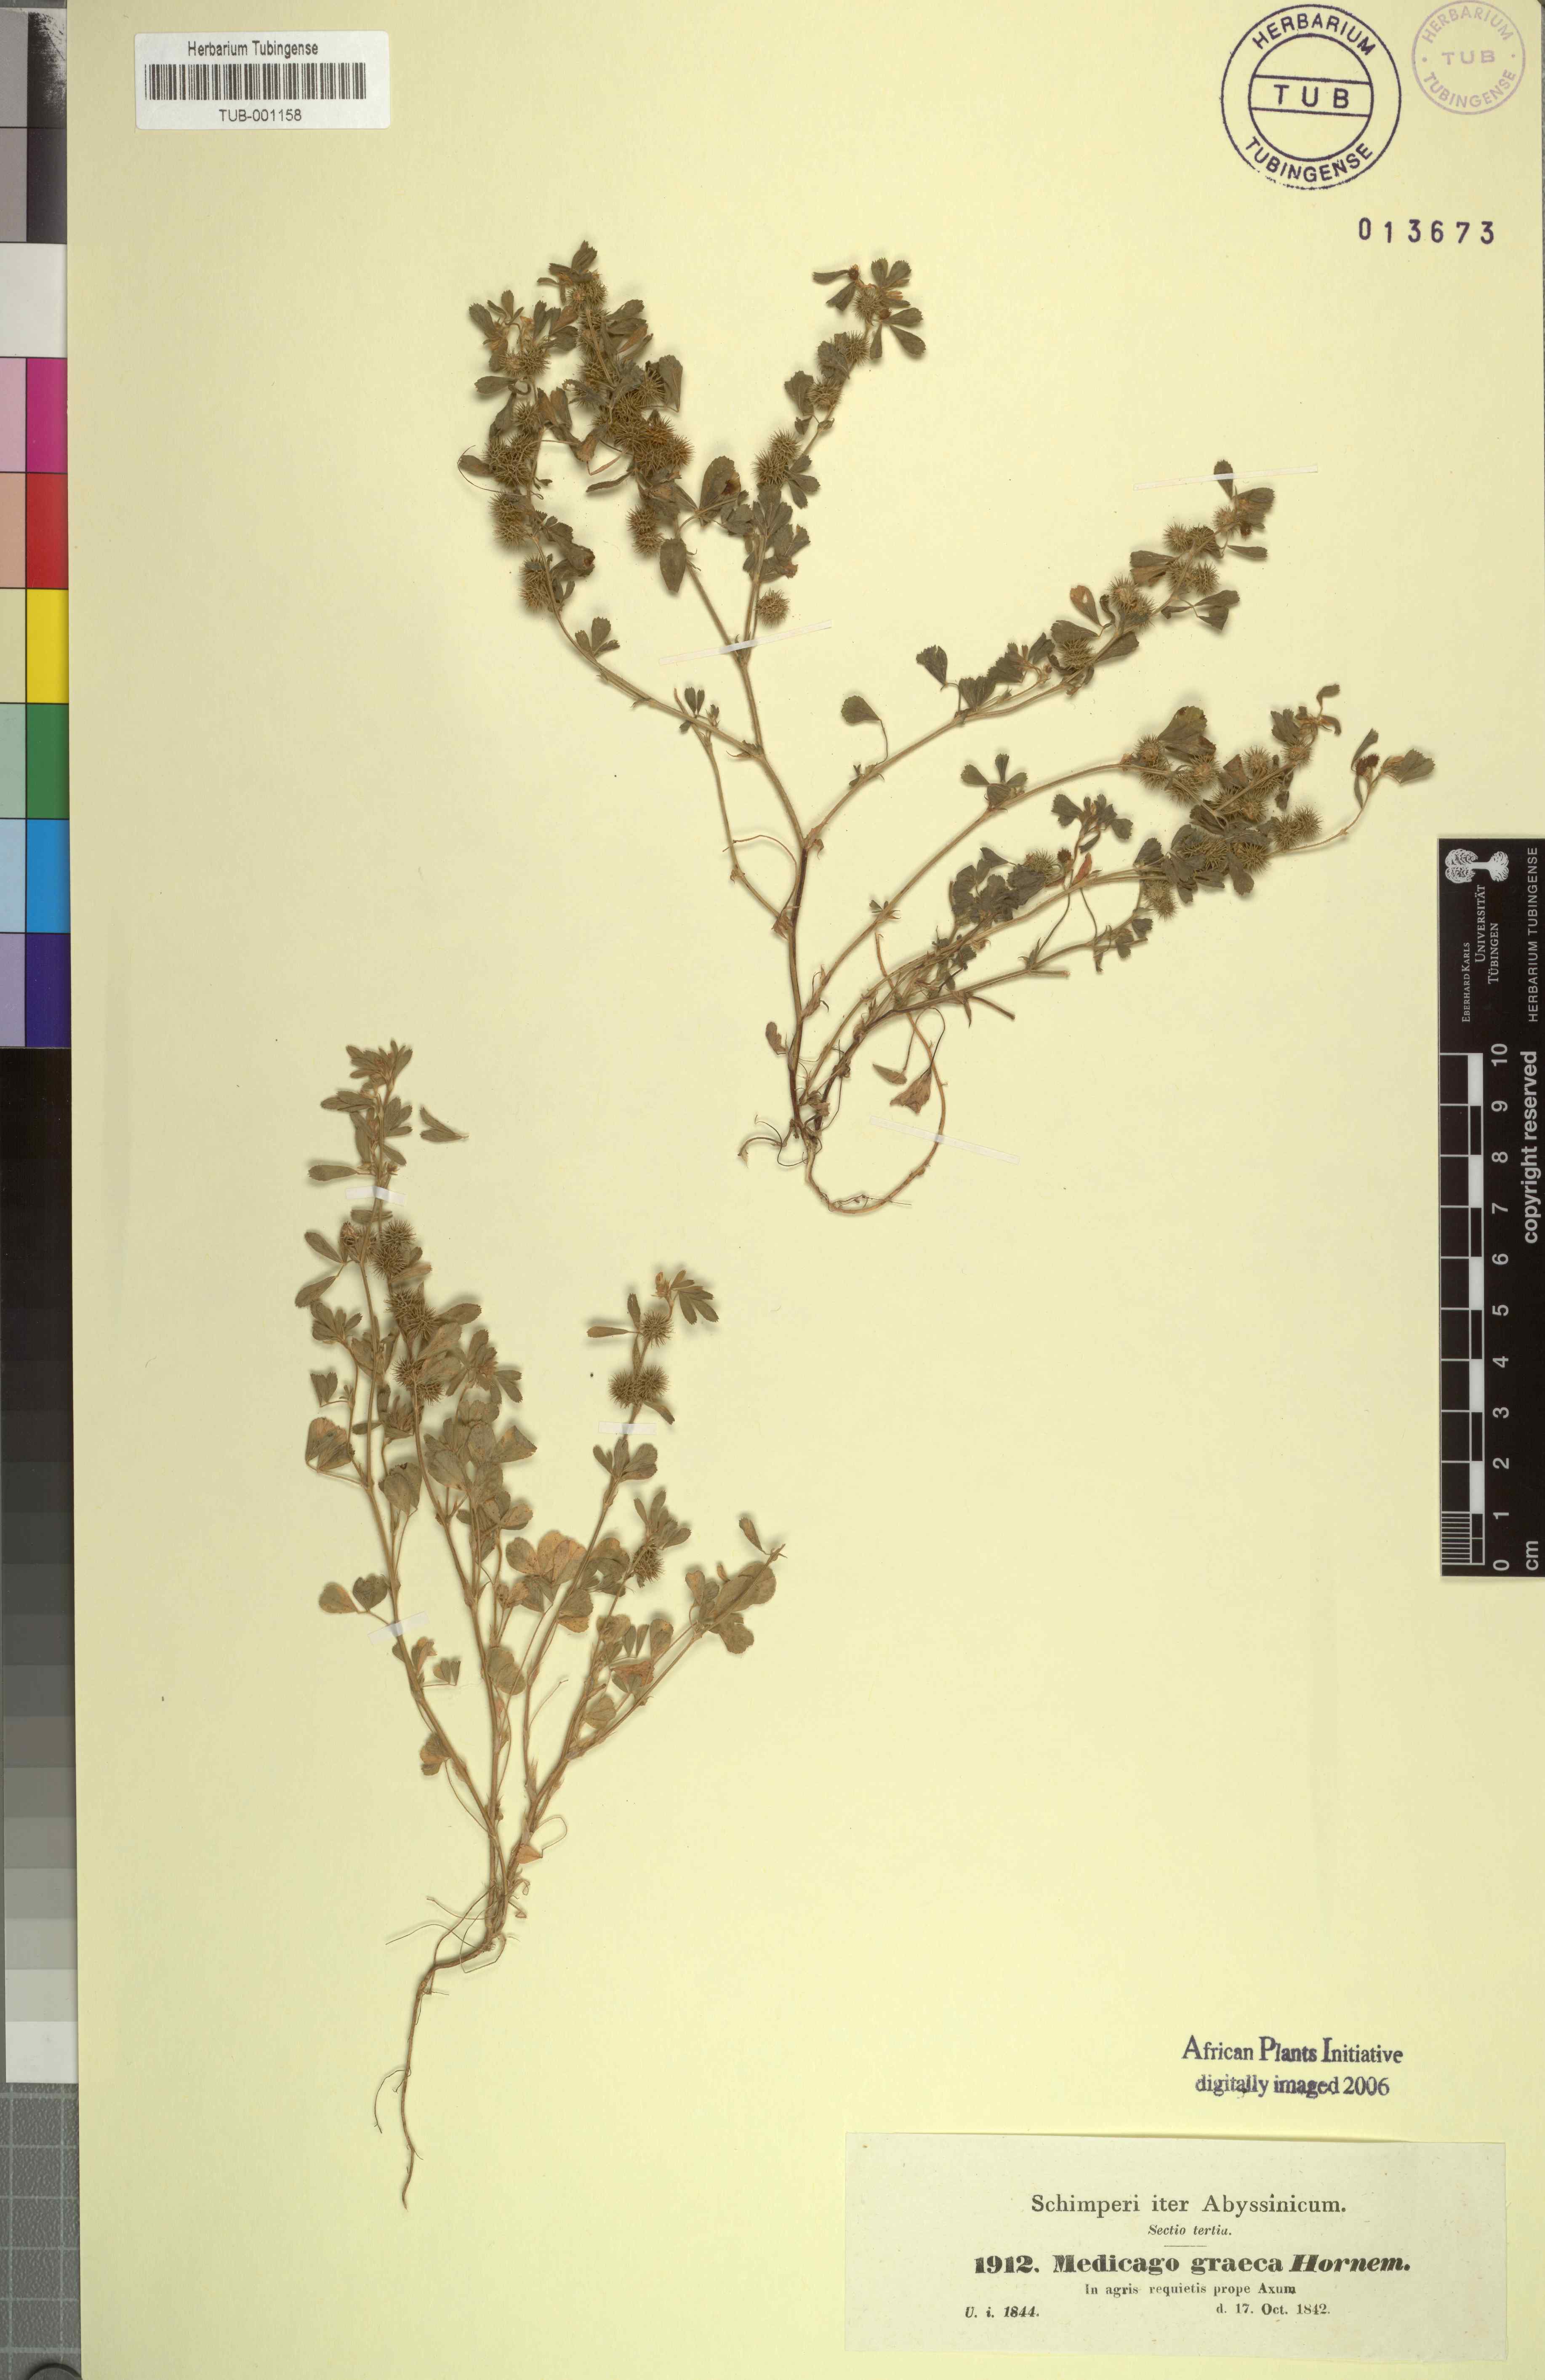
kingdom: Plantae
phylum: Tracheophyta
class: Magnoliopsida
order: Fabales
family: Fabaceae
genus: Medicago
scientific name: Medicago minima
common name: Little bur-clover
